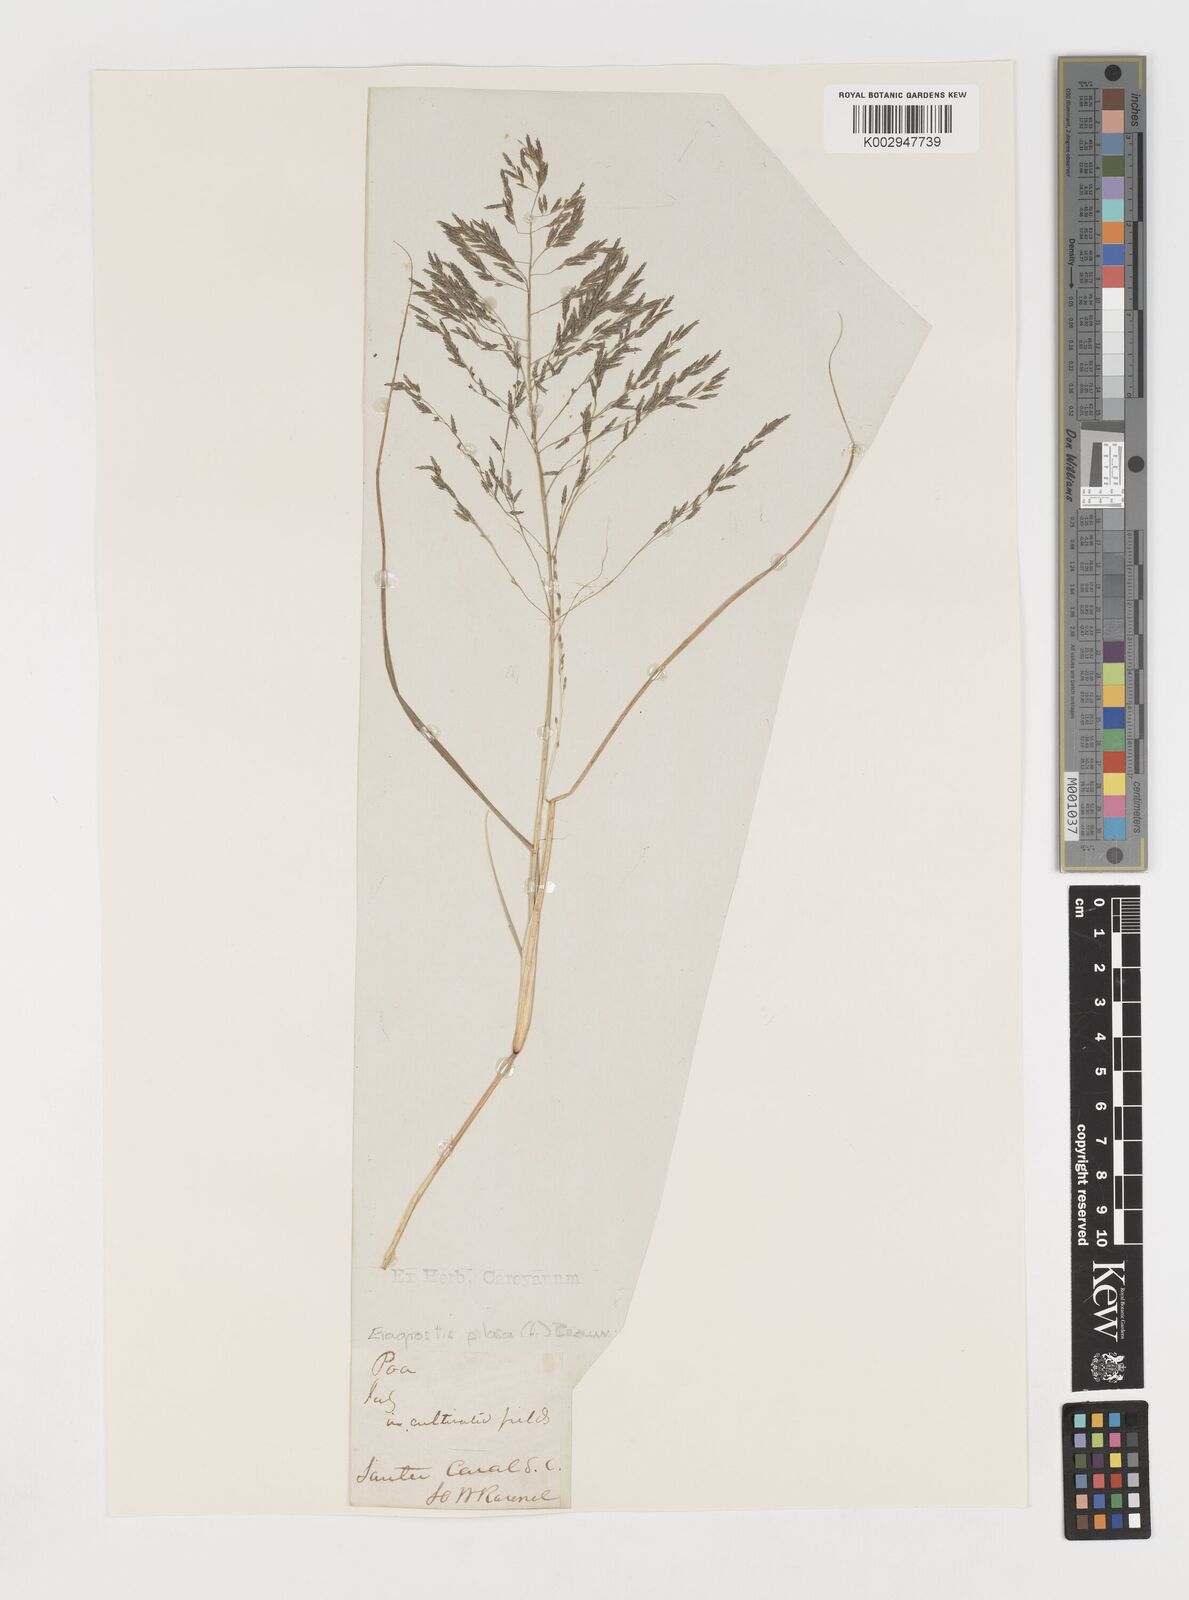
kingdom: Plantae
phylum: Tracheophyta
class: Liliopsida
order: Poales
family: Poaceae
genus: Eragrostis
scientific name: Eragrostis pilosa
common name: Indian lovegrass
